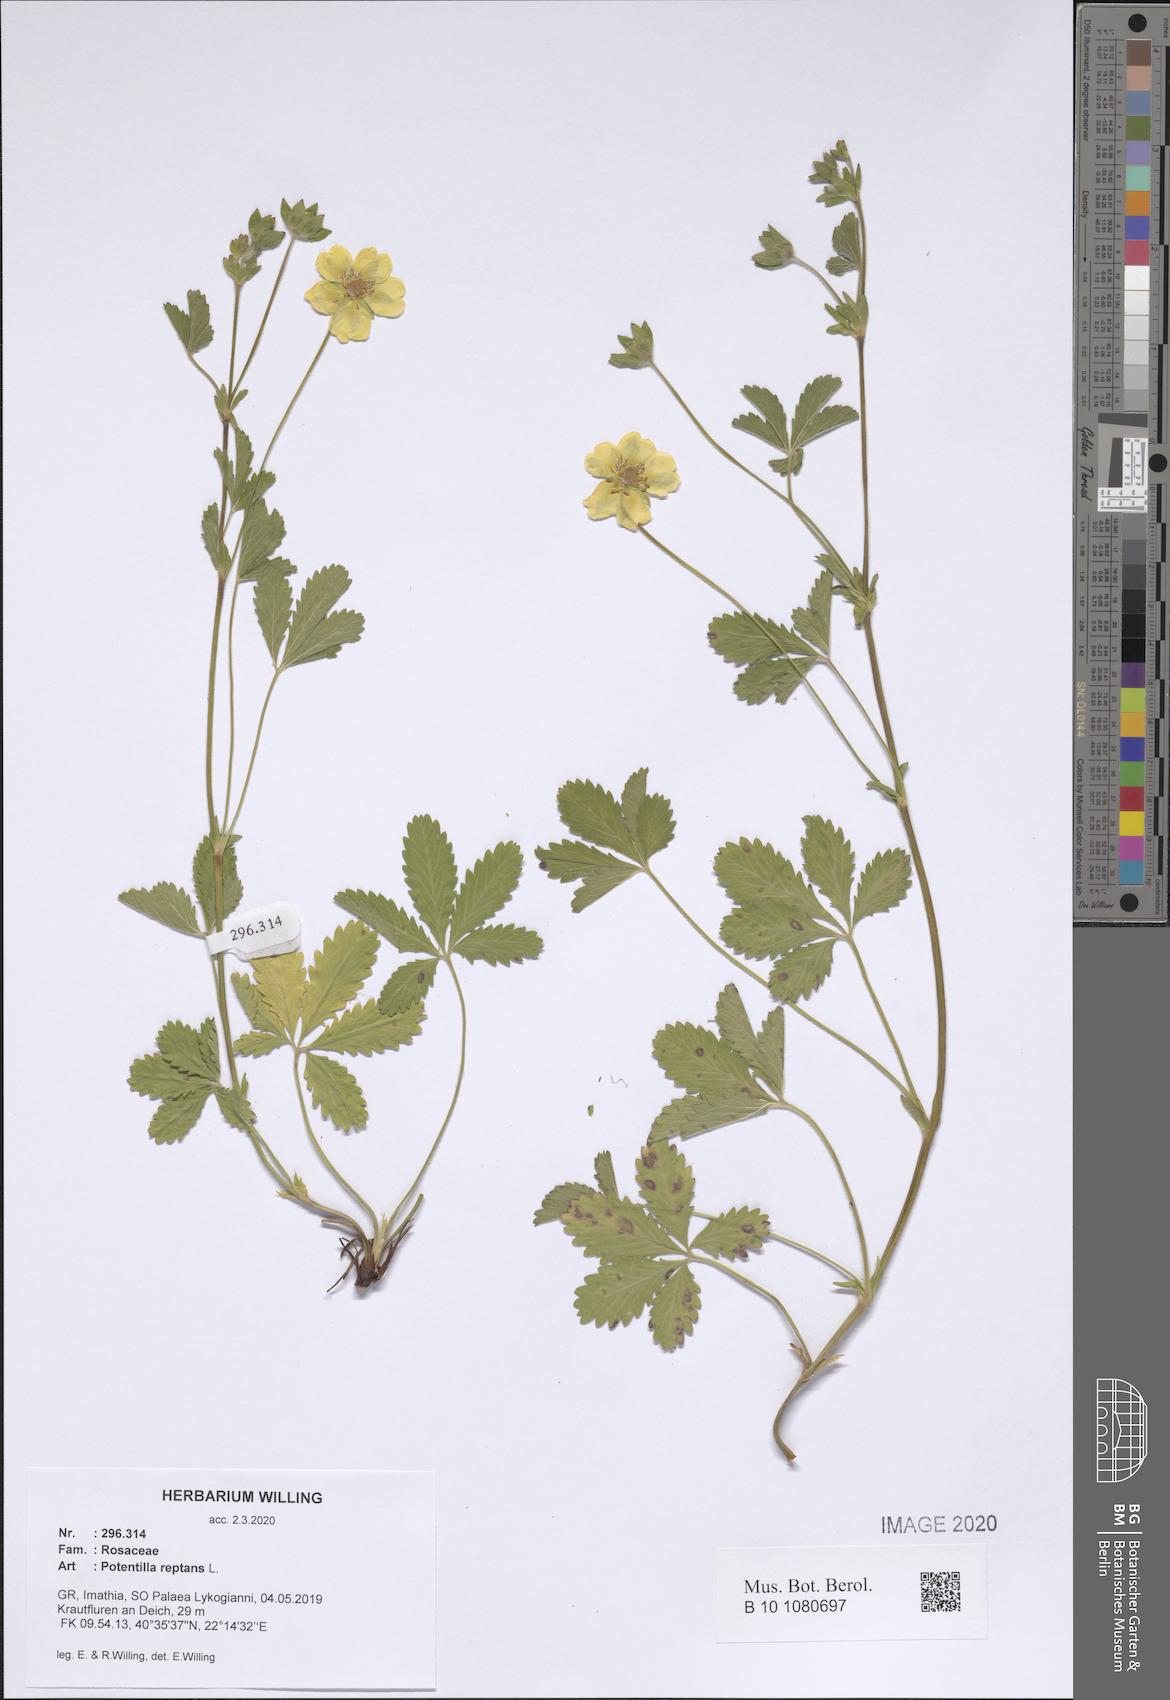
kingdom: Plantae
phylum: Tracheophyta
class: Magnoliopsida
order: Rosales
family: Rosaceae
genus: Potentilla
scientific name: Potentilla reptans
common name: Creeping cinquefoil
